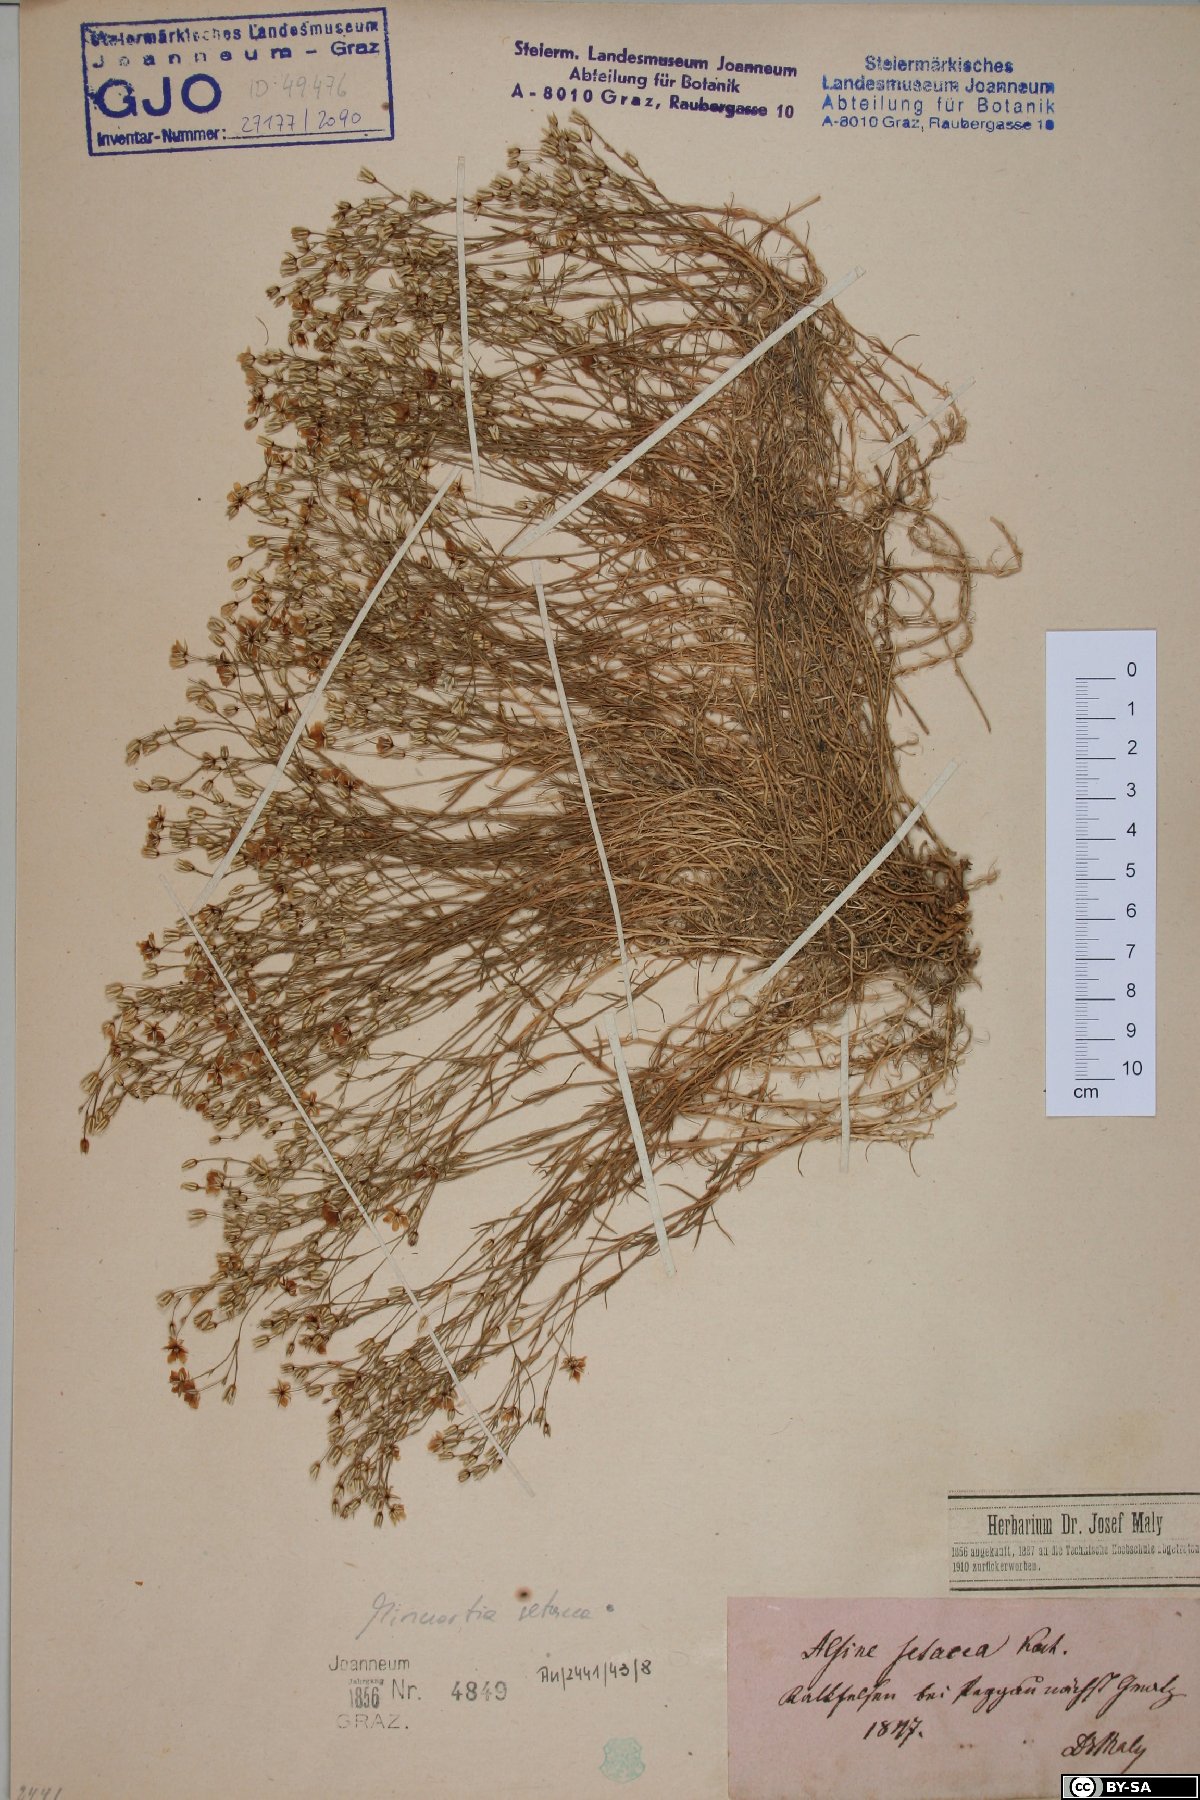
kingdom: Plantae
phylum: Tracheophyta
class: Magnoliopsida
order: Caryophyllales
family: Caryophyllaceae
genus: Minuartia
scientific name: Minuartia setacea
